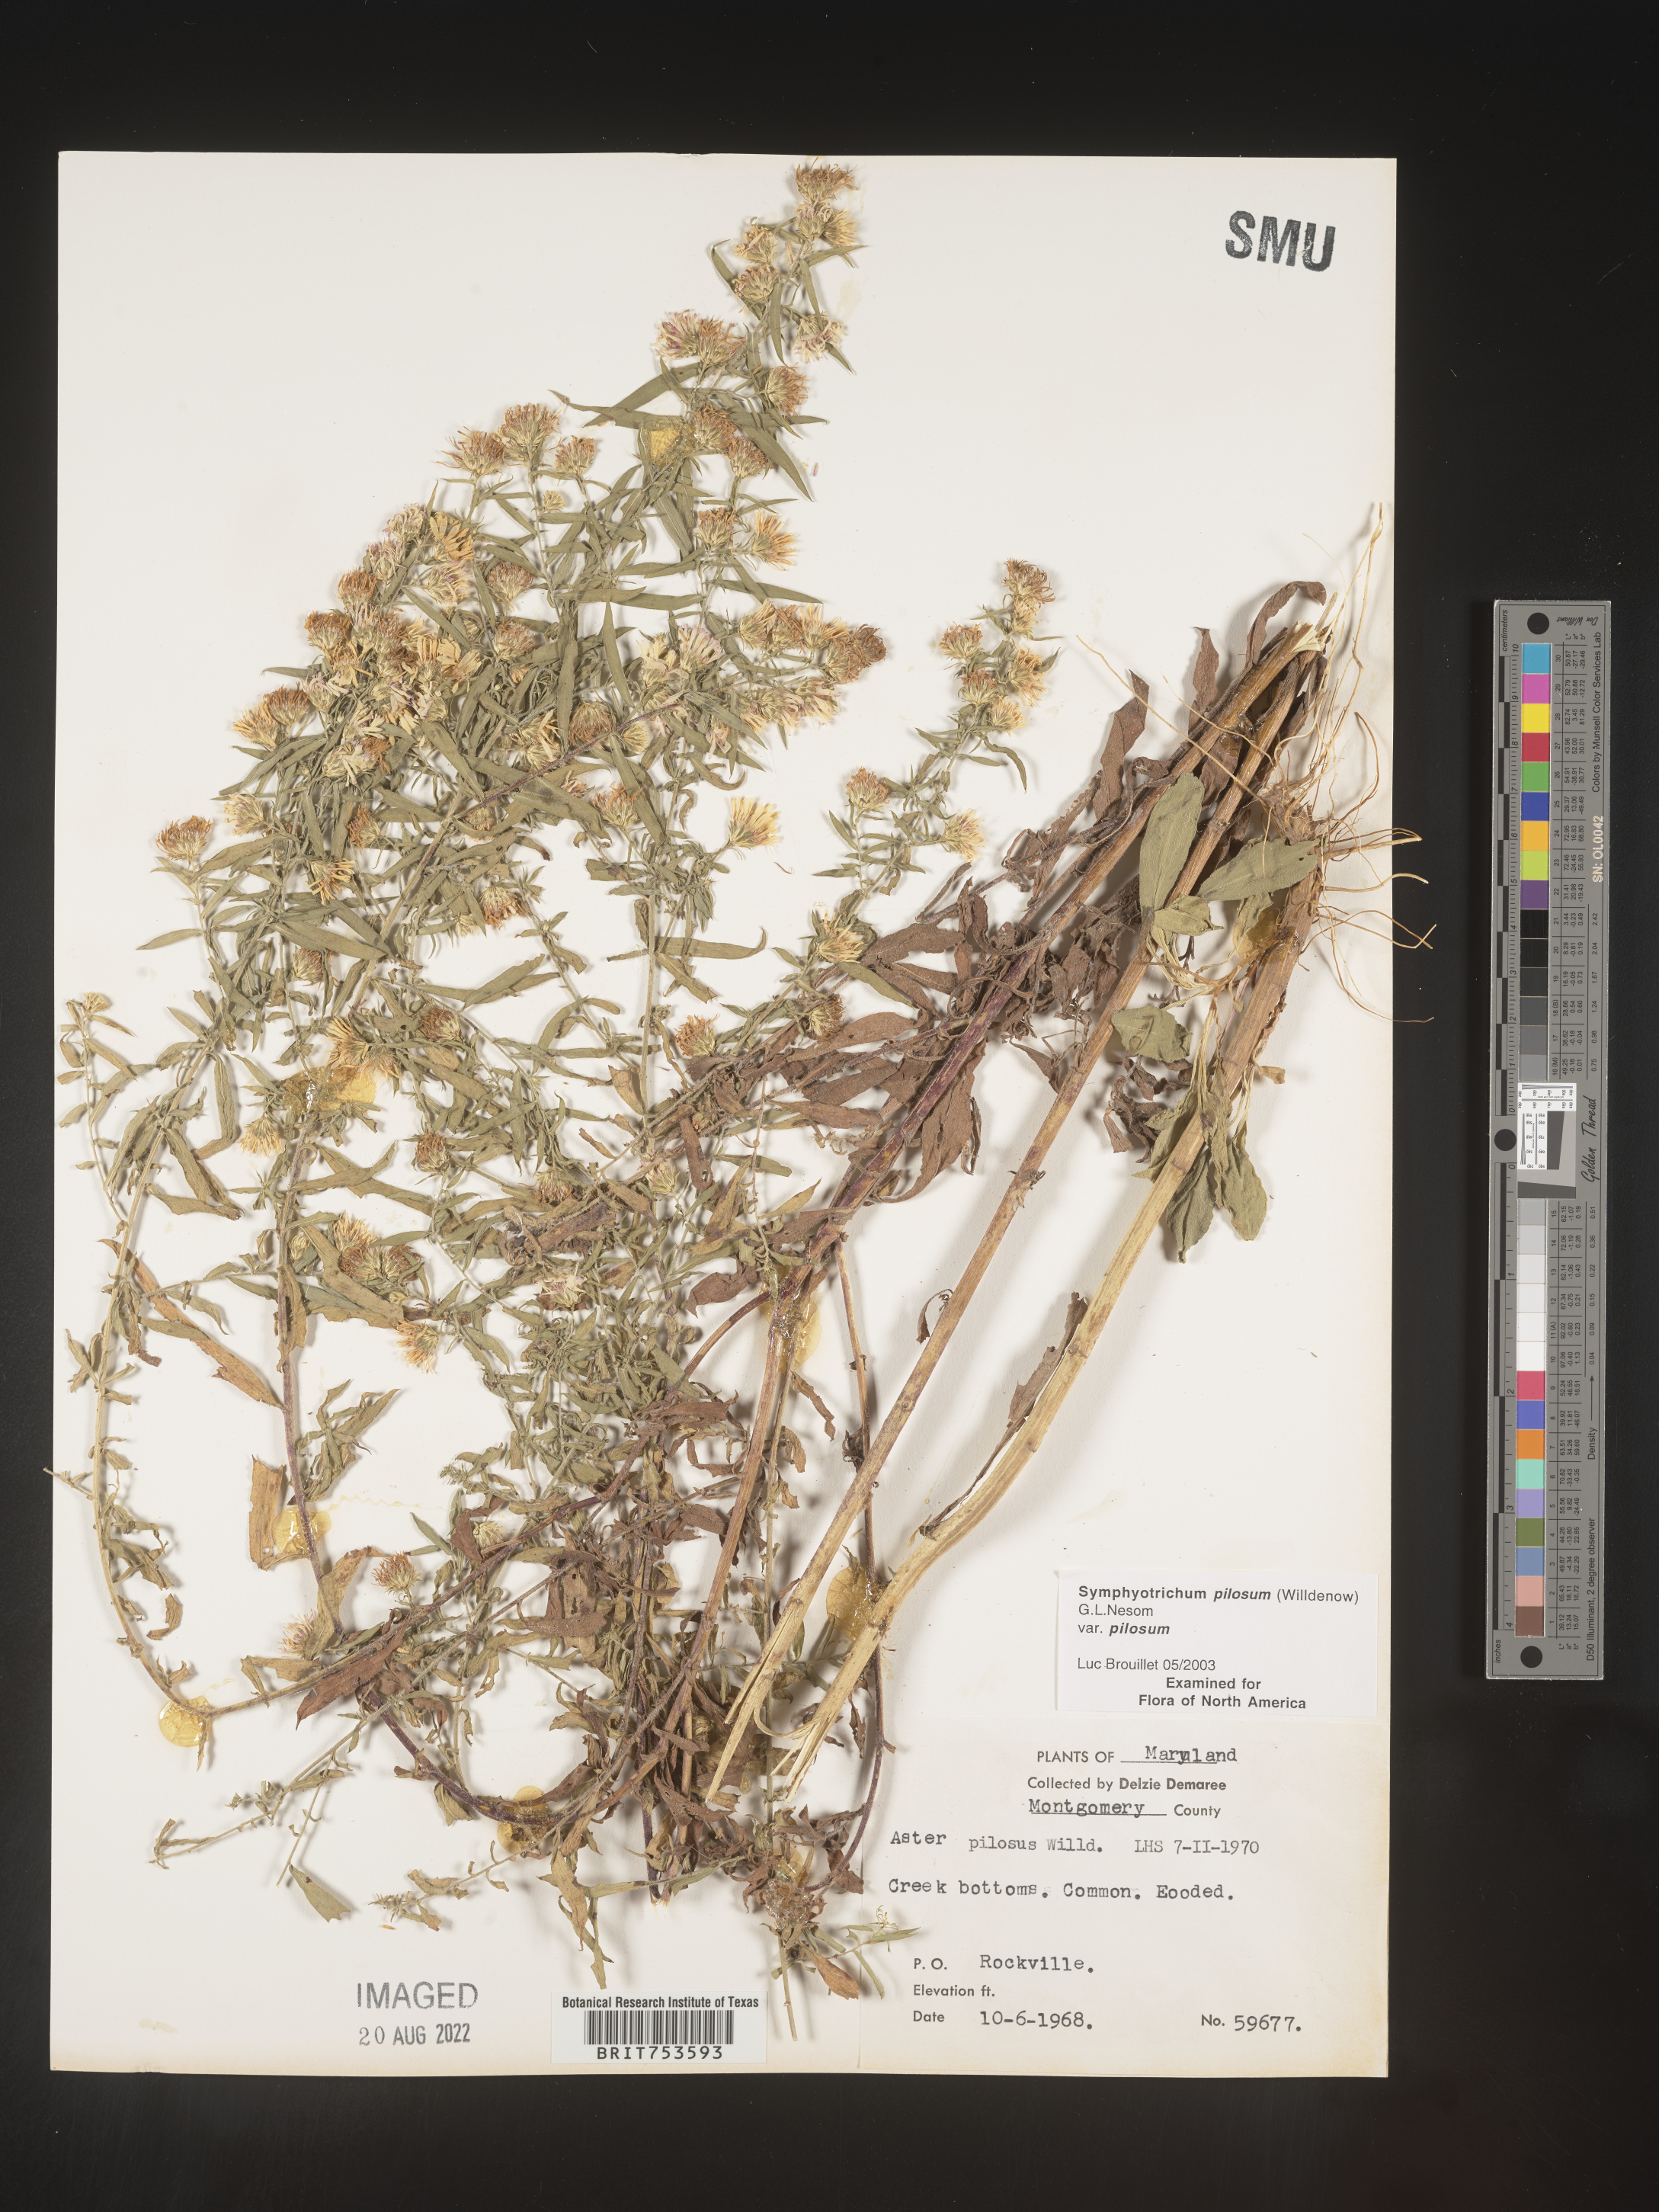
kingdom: Plantae
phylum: Tracheophyta
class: Magnoliopsida
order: Asterales
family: Asteraceae
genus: Symphyotrichum
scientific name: Symphyotrichum pilosum
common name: Awl aster
